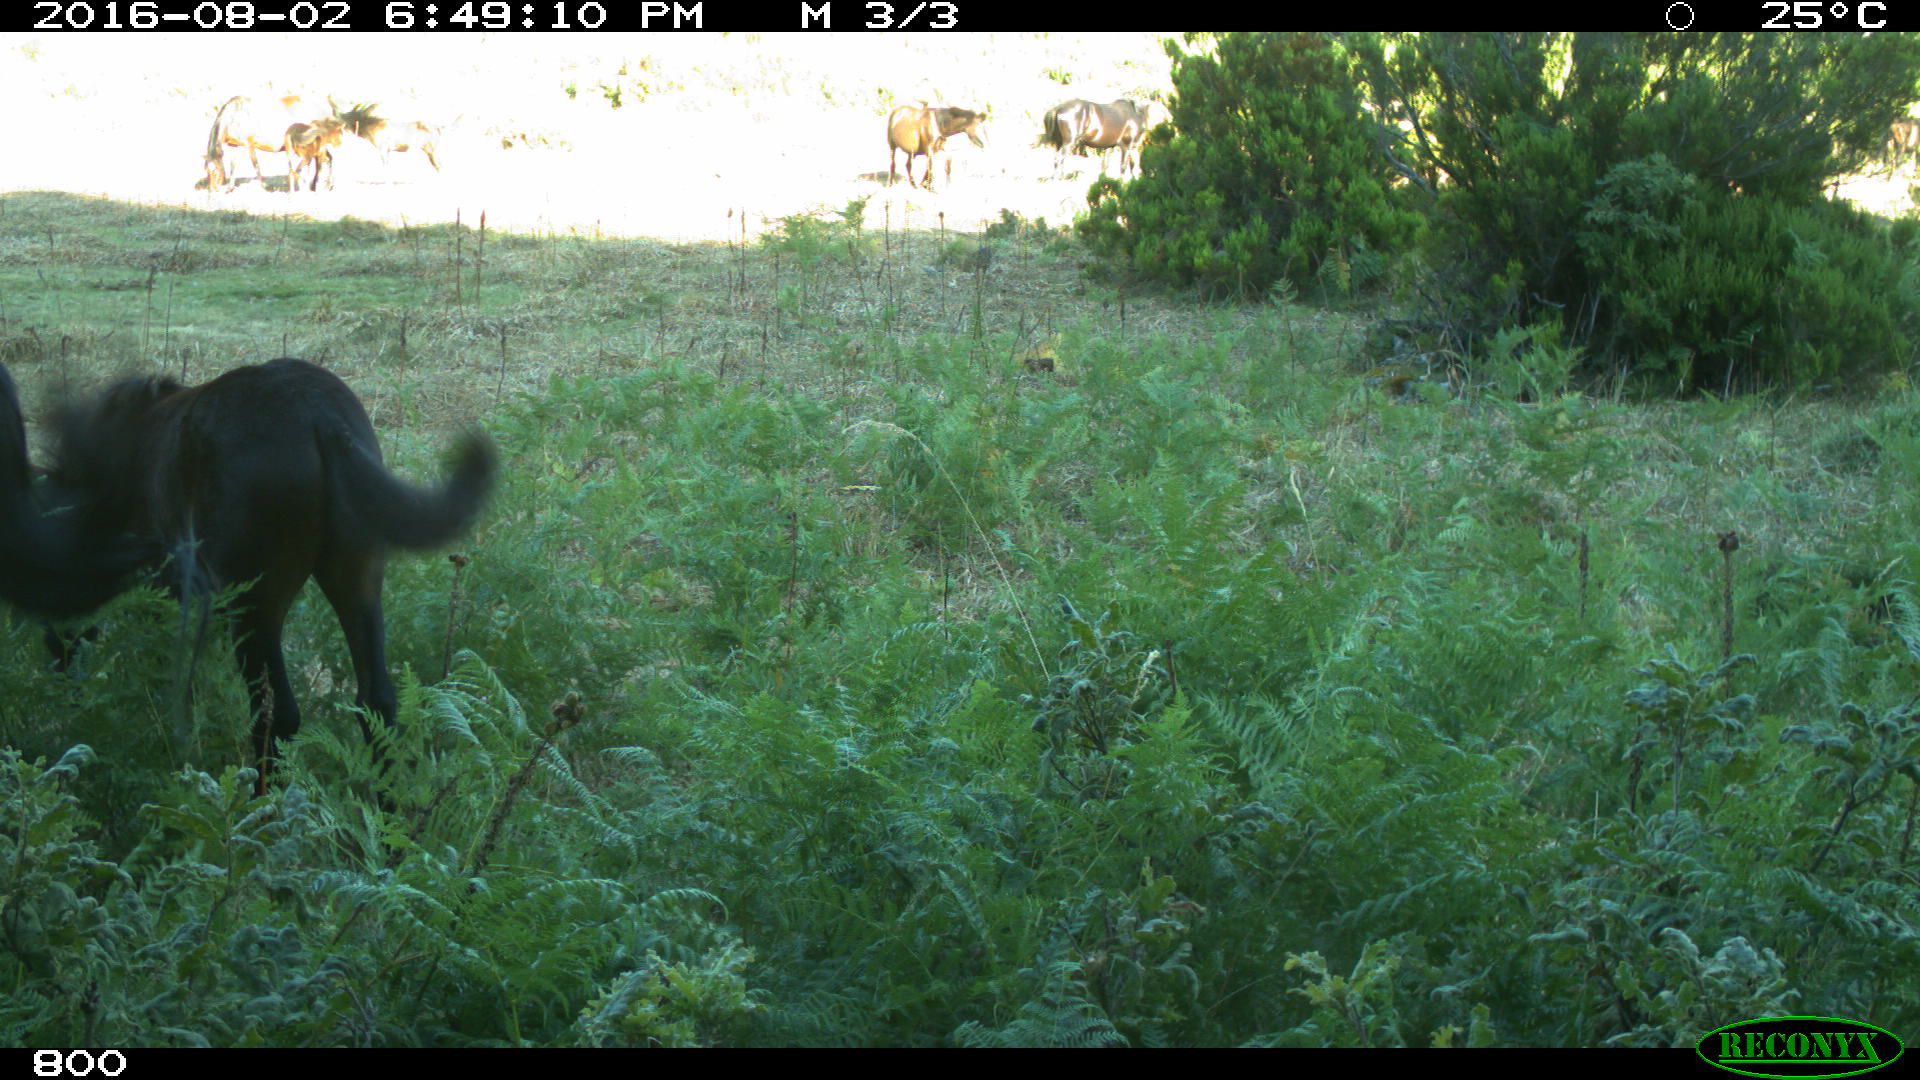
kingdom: Animalia
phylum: Chordata
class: Mammalia
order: Perissodactyla
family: Equidae
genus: Equus
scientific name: Equus caballus
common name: Horse
